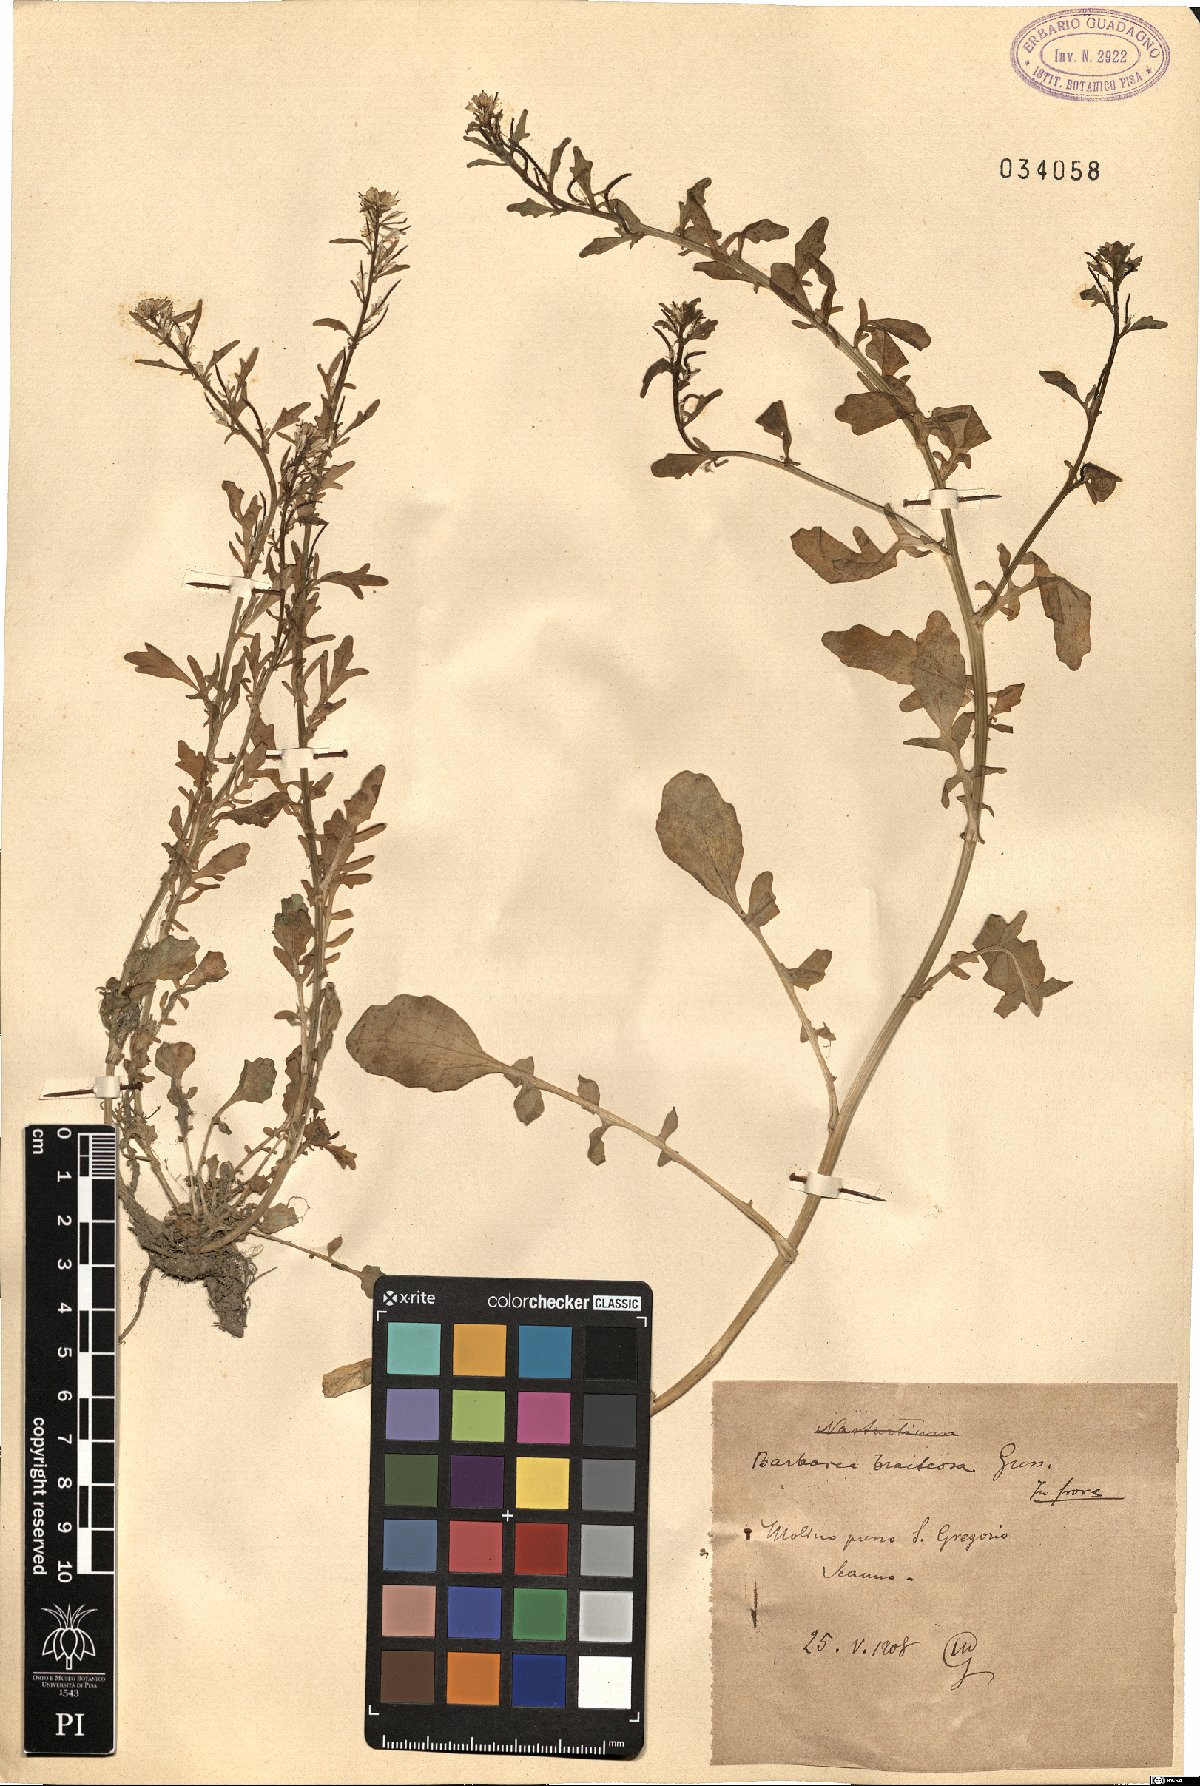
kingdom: Plantae
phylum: Tracheophyta
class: Magnoliopsida
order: Brassicales
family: Brassicaceae
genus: Barbarea
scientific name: Barbarea bracteosa
